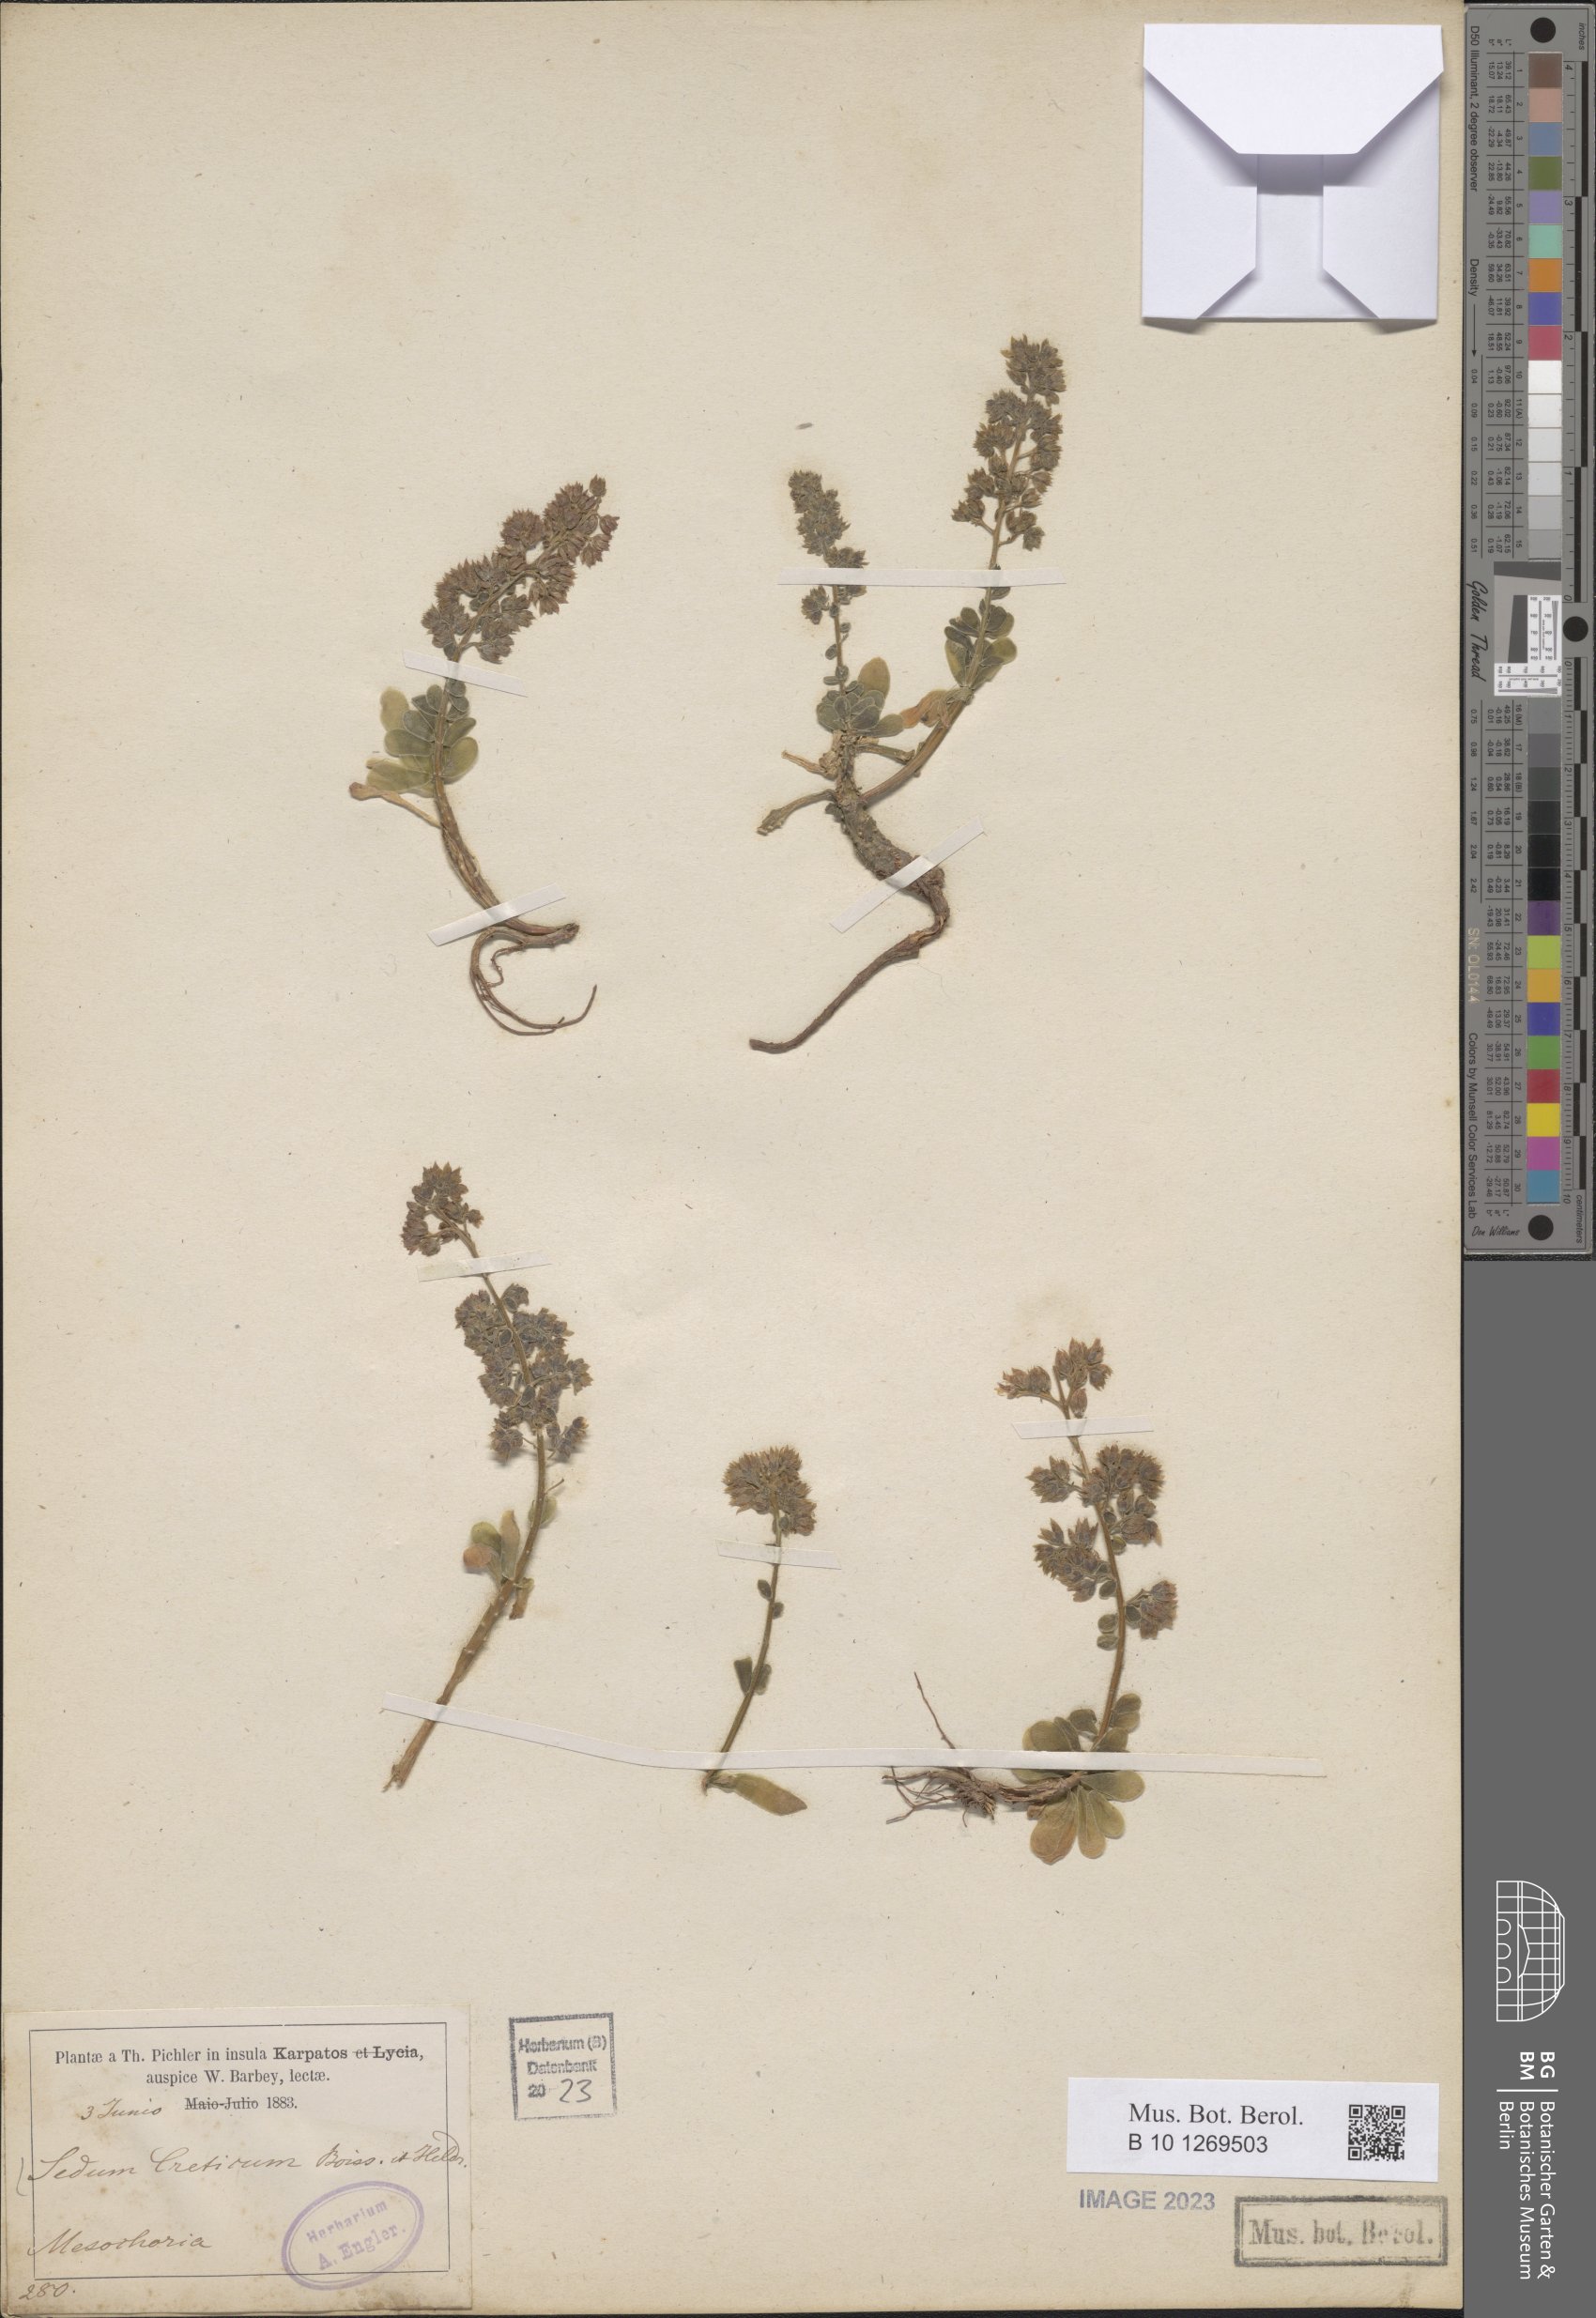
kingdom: Plantae
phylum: Tracheophyta
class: Magnoliopsida
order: Saxifragales
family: Crassulaceae
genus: Sedum
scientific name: Sedum creticum
